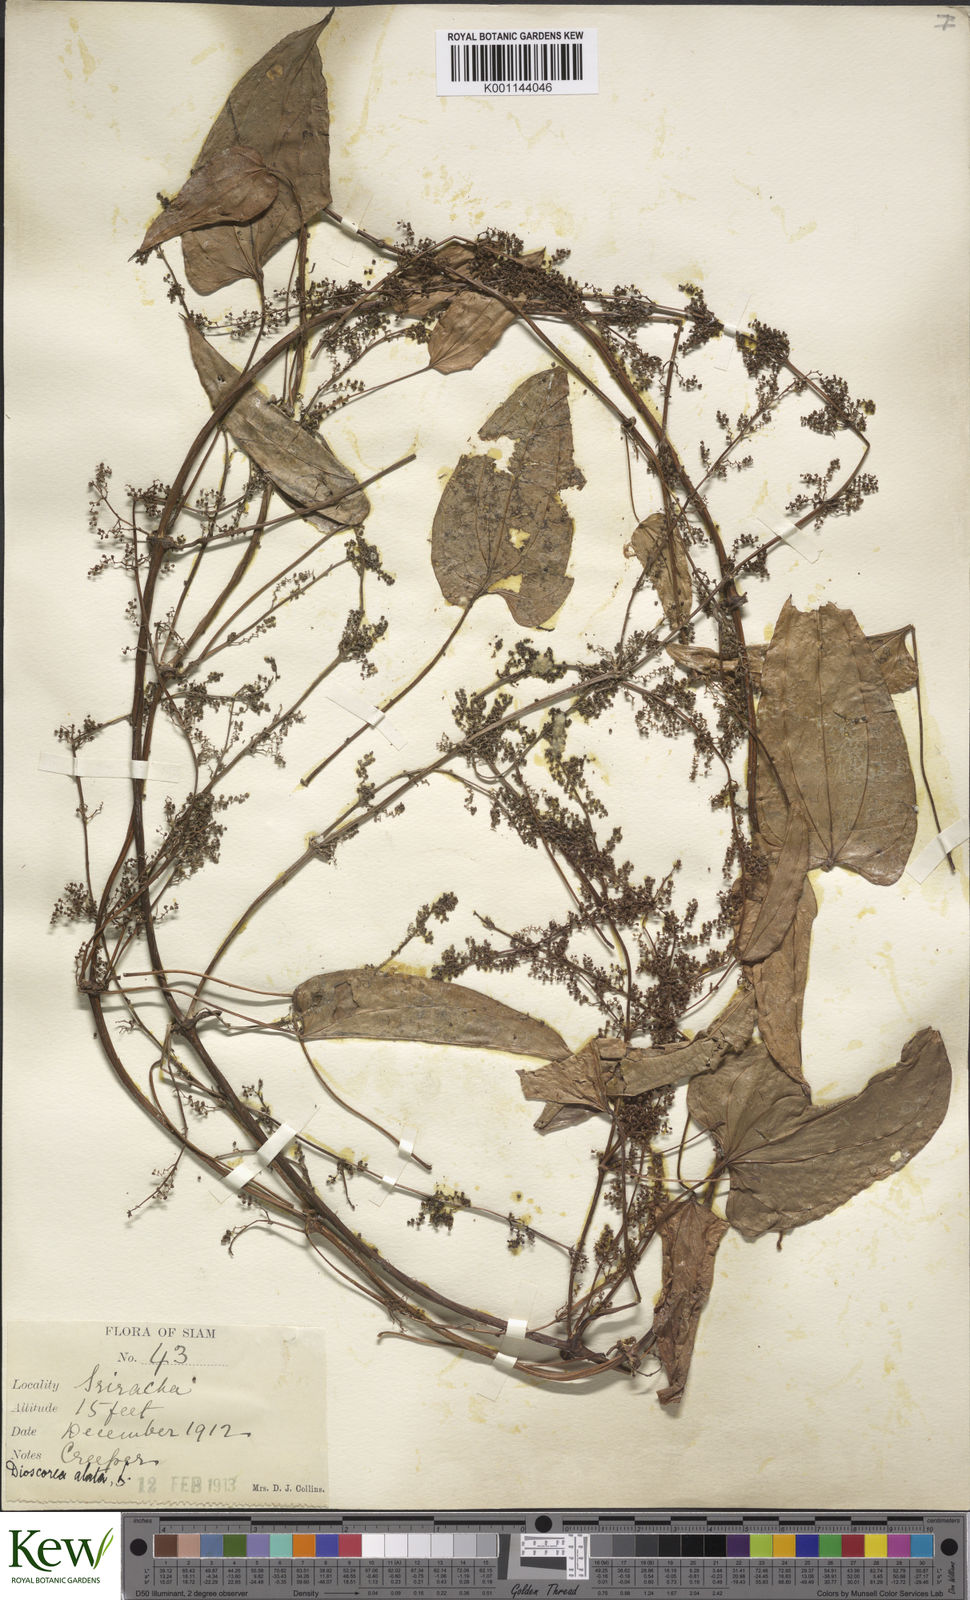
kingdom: Plantae
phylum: Tracheophyta
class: Liliopsida
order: Dioscoreales
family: Dioscoreaceae
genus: Dioscorea
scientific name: Dioscorea alata
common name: Water yam
